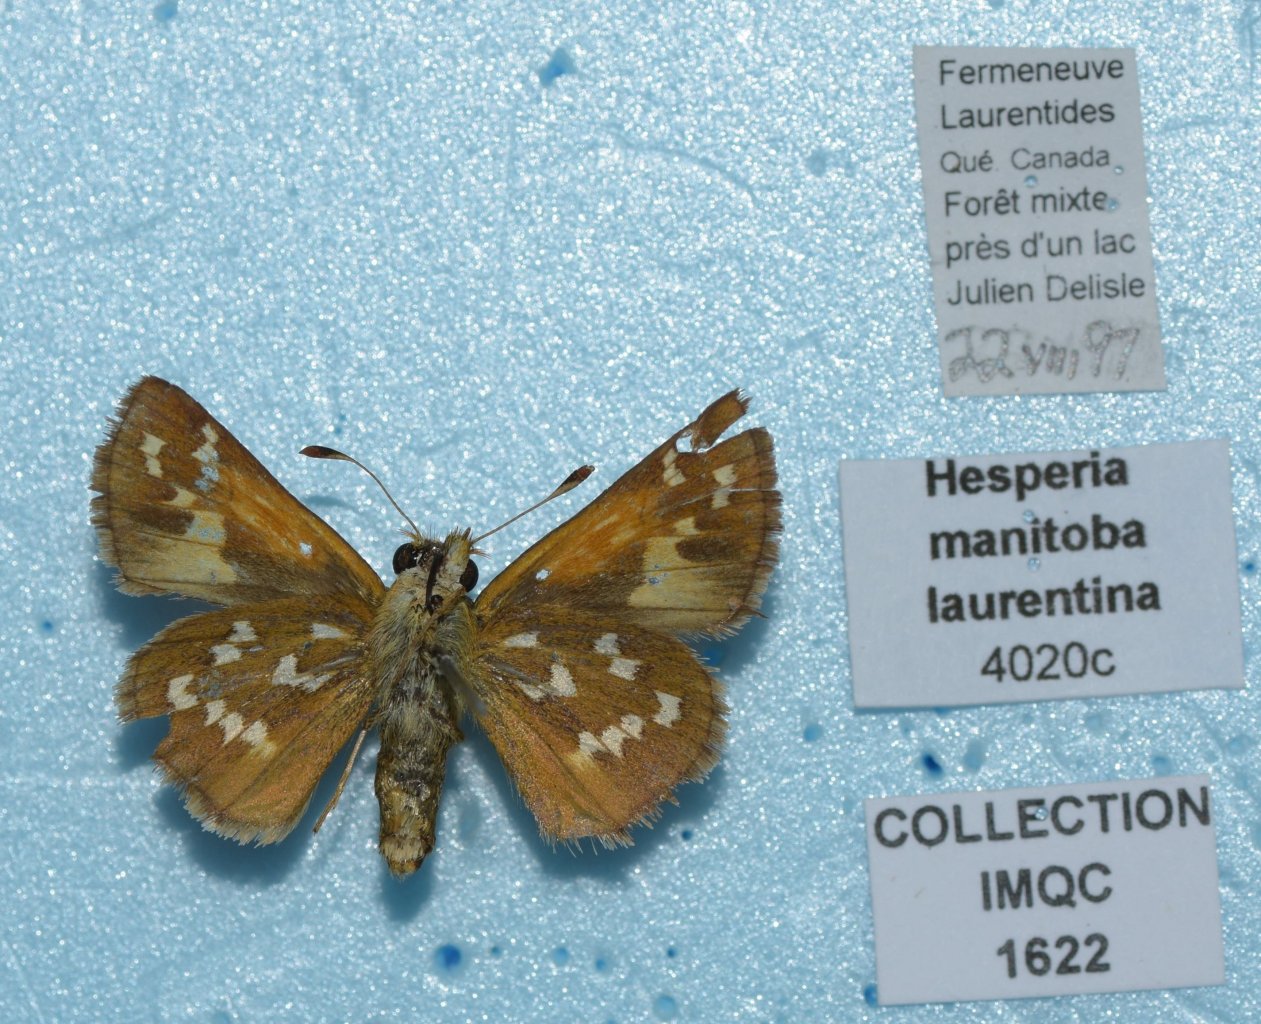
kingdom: Animalia
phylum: Arthropoda
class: Insecta
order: Lepidoptera
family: Hesperiidae
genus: Hesperia
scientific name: Hesperia comma
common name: Common Branded Skipper
